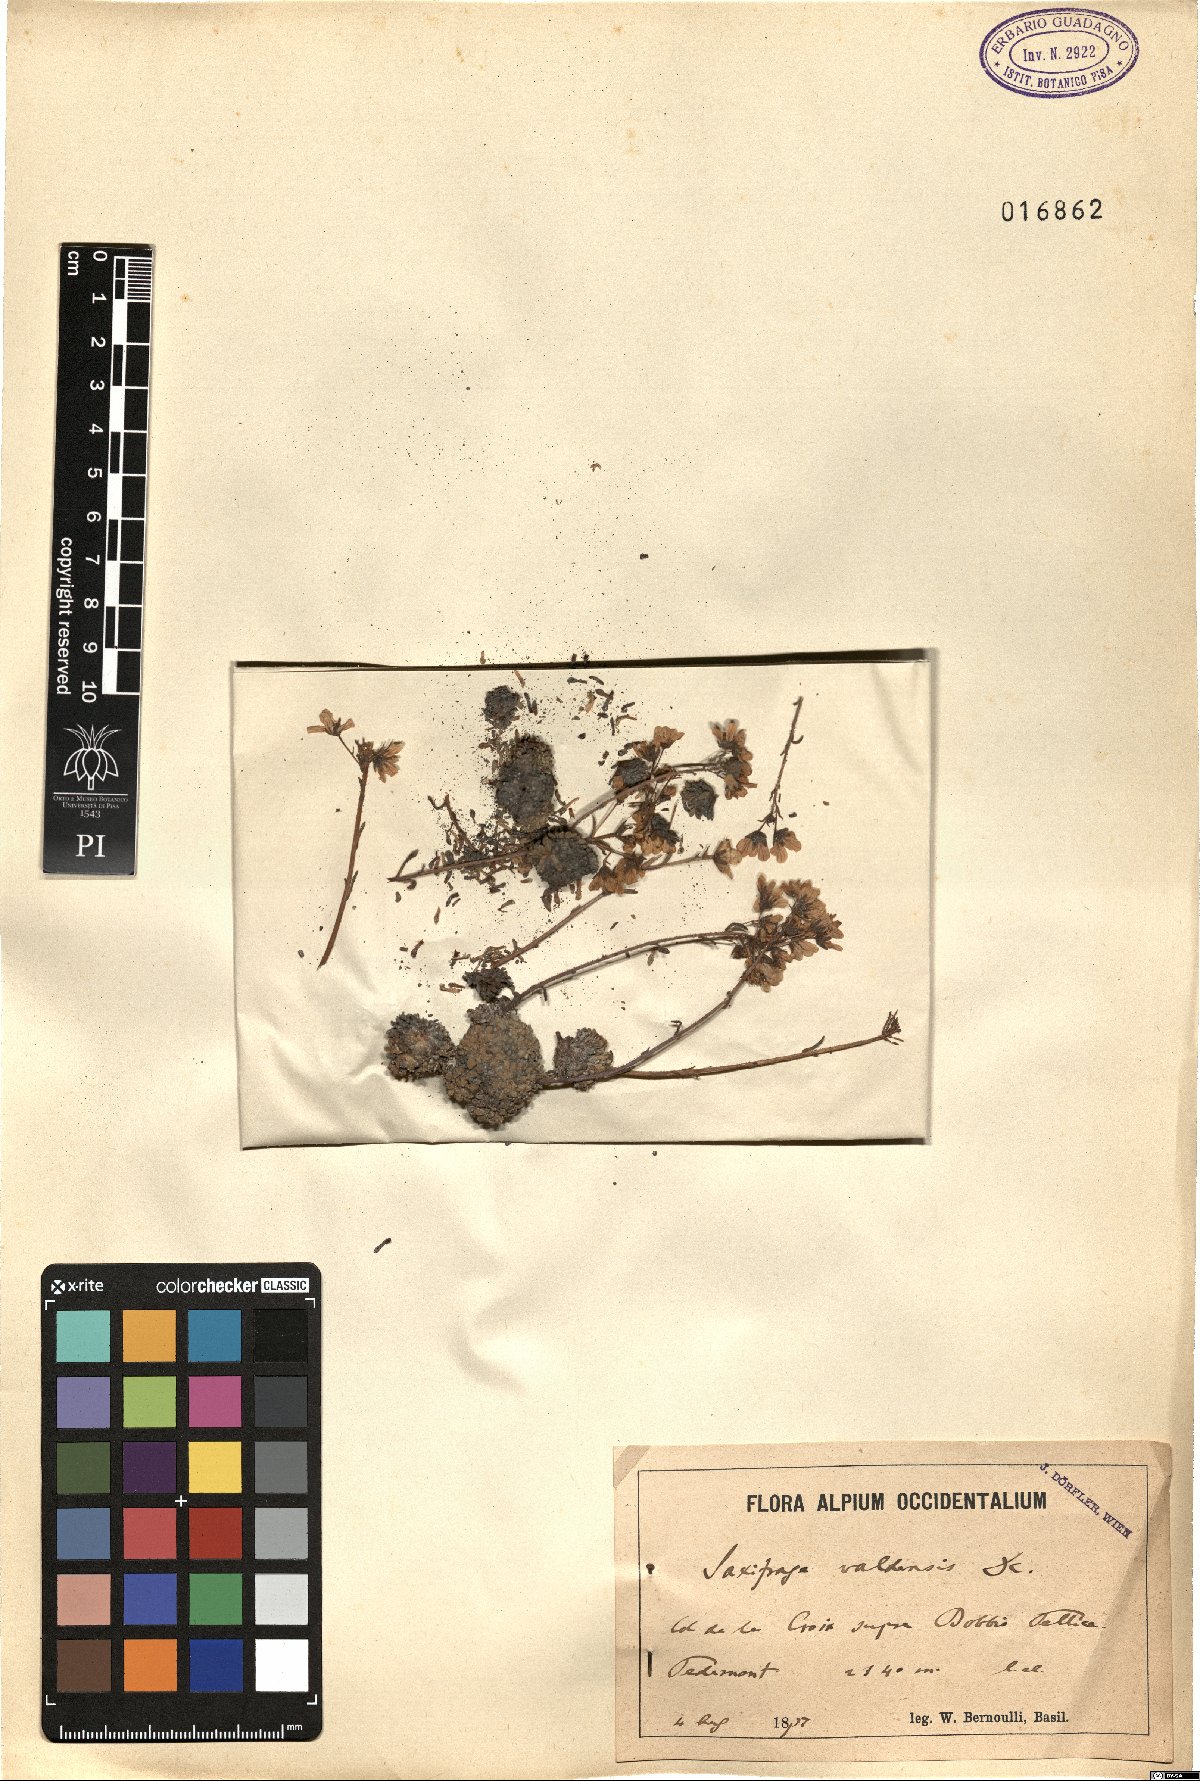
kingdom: Plantae
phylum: Tracheophyta
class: Magnoliopsida
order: Saxifragales
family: Saxifragaceae
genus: Saxifraga
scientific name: Saxifraga valdensis
